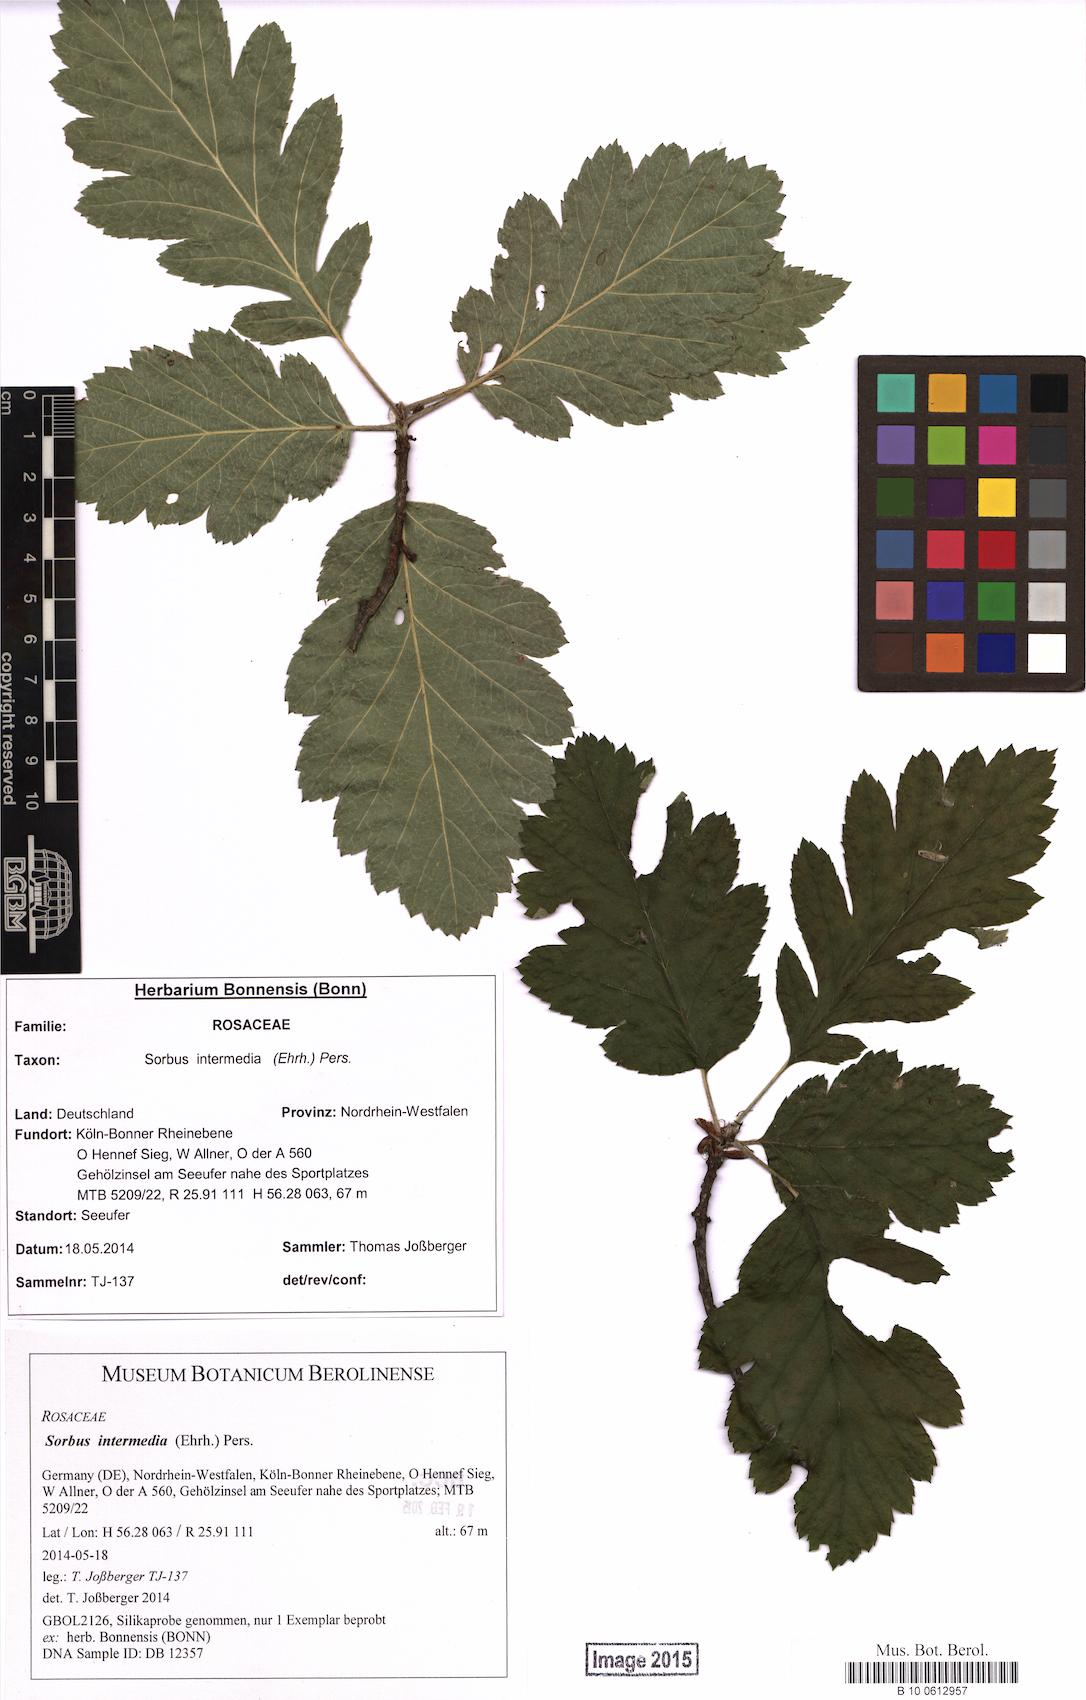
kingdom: Plantae
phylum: Tracheophyta
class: Magnoliopsida
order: Rosales
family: Rosaceae
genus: Scandosorbus
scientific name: Scandosorbus intermedia
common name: Swedish whitebeam
